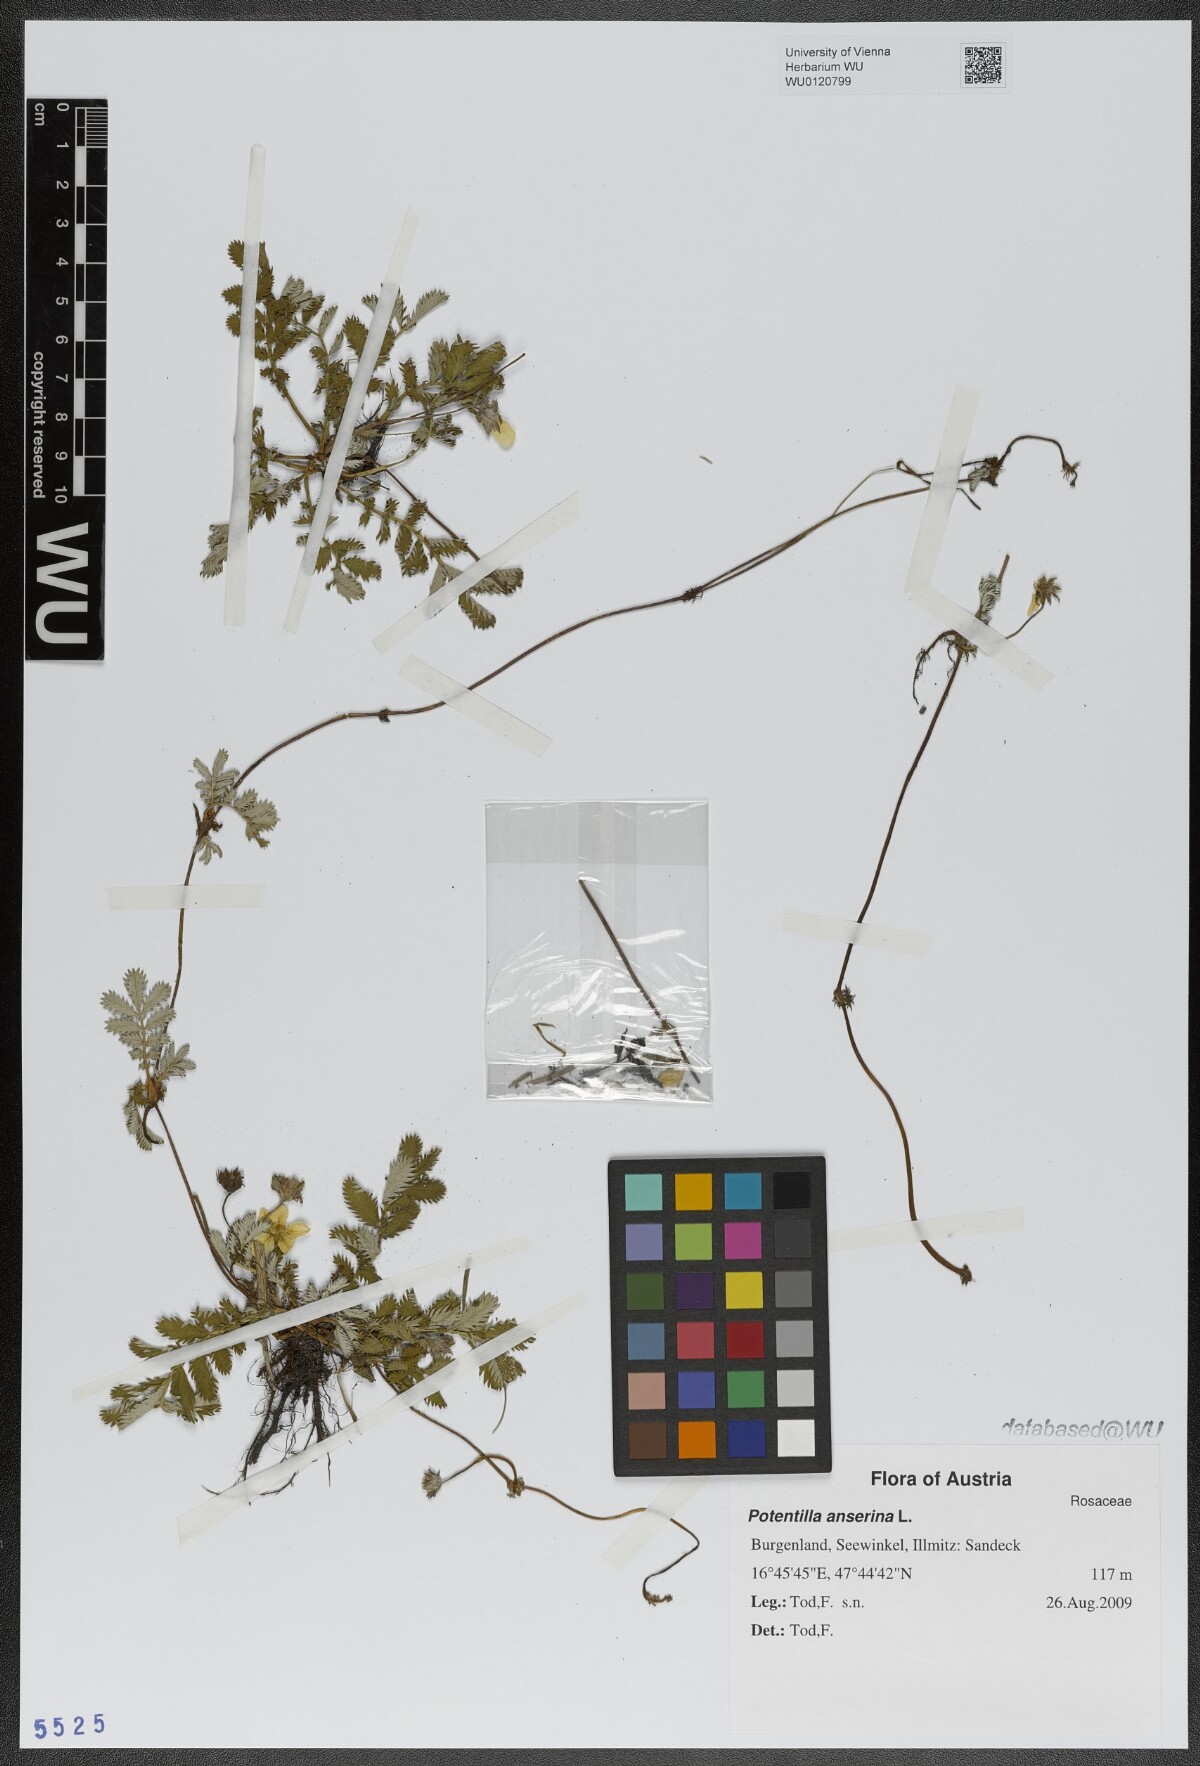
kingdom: Plantae
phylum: Tracheophyta
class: Magnoliopsida
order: Rosales
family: Rosaceae
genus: Argentina
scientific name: Argentina anserina
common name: Common silverweed
